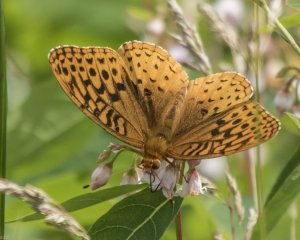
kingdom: Animalia
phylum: Arthropoda
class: Insecta
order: Lepidoptera
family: Nymphalidae
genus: Speyeria
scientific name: Speyeria cybele
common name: Great Spangled Fritillary
